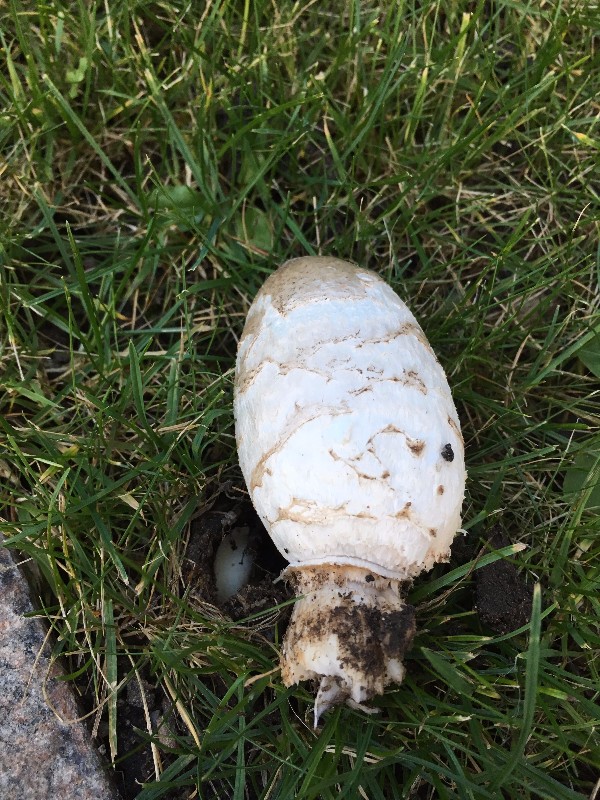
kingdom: Fungi
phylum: Basidiomycota
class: Agaricomycetes
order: Agaricales
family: Agaricaceae
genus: Coprinus
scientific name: Coprinus comatus
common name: stor parykhat
